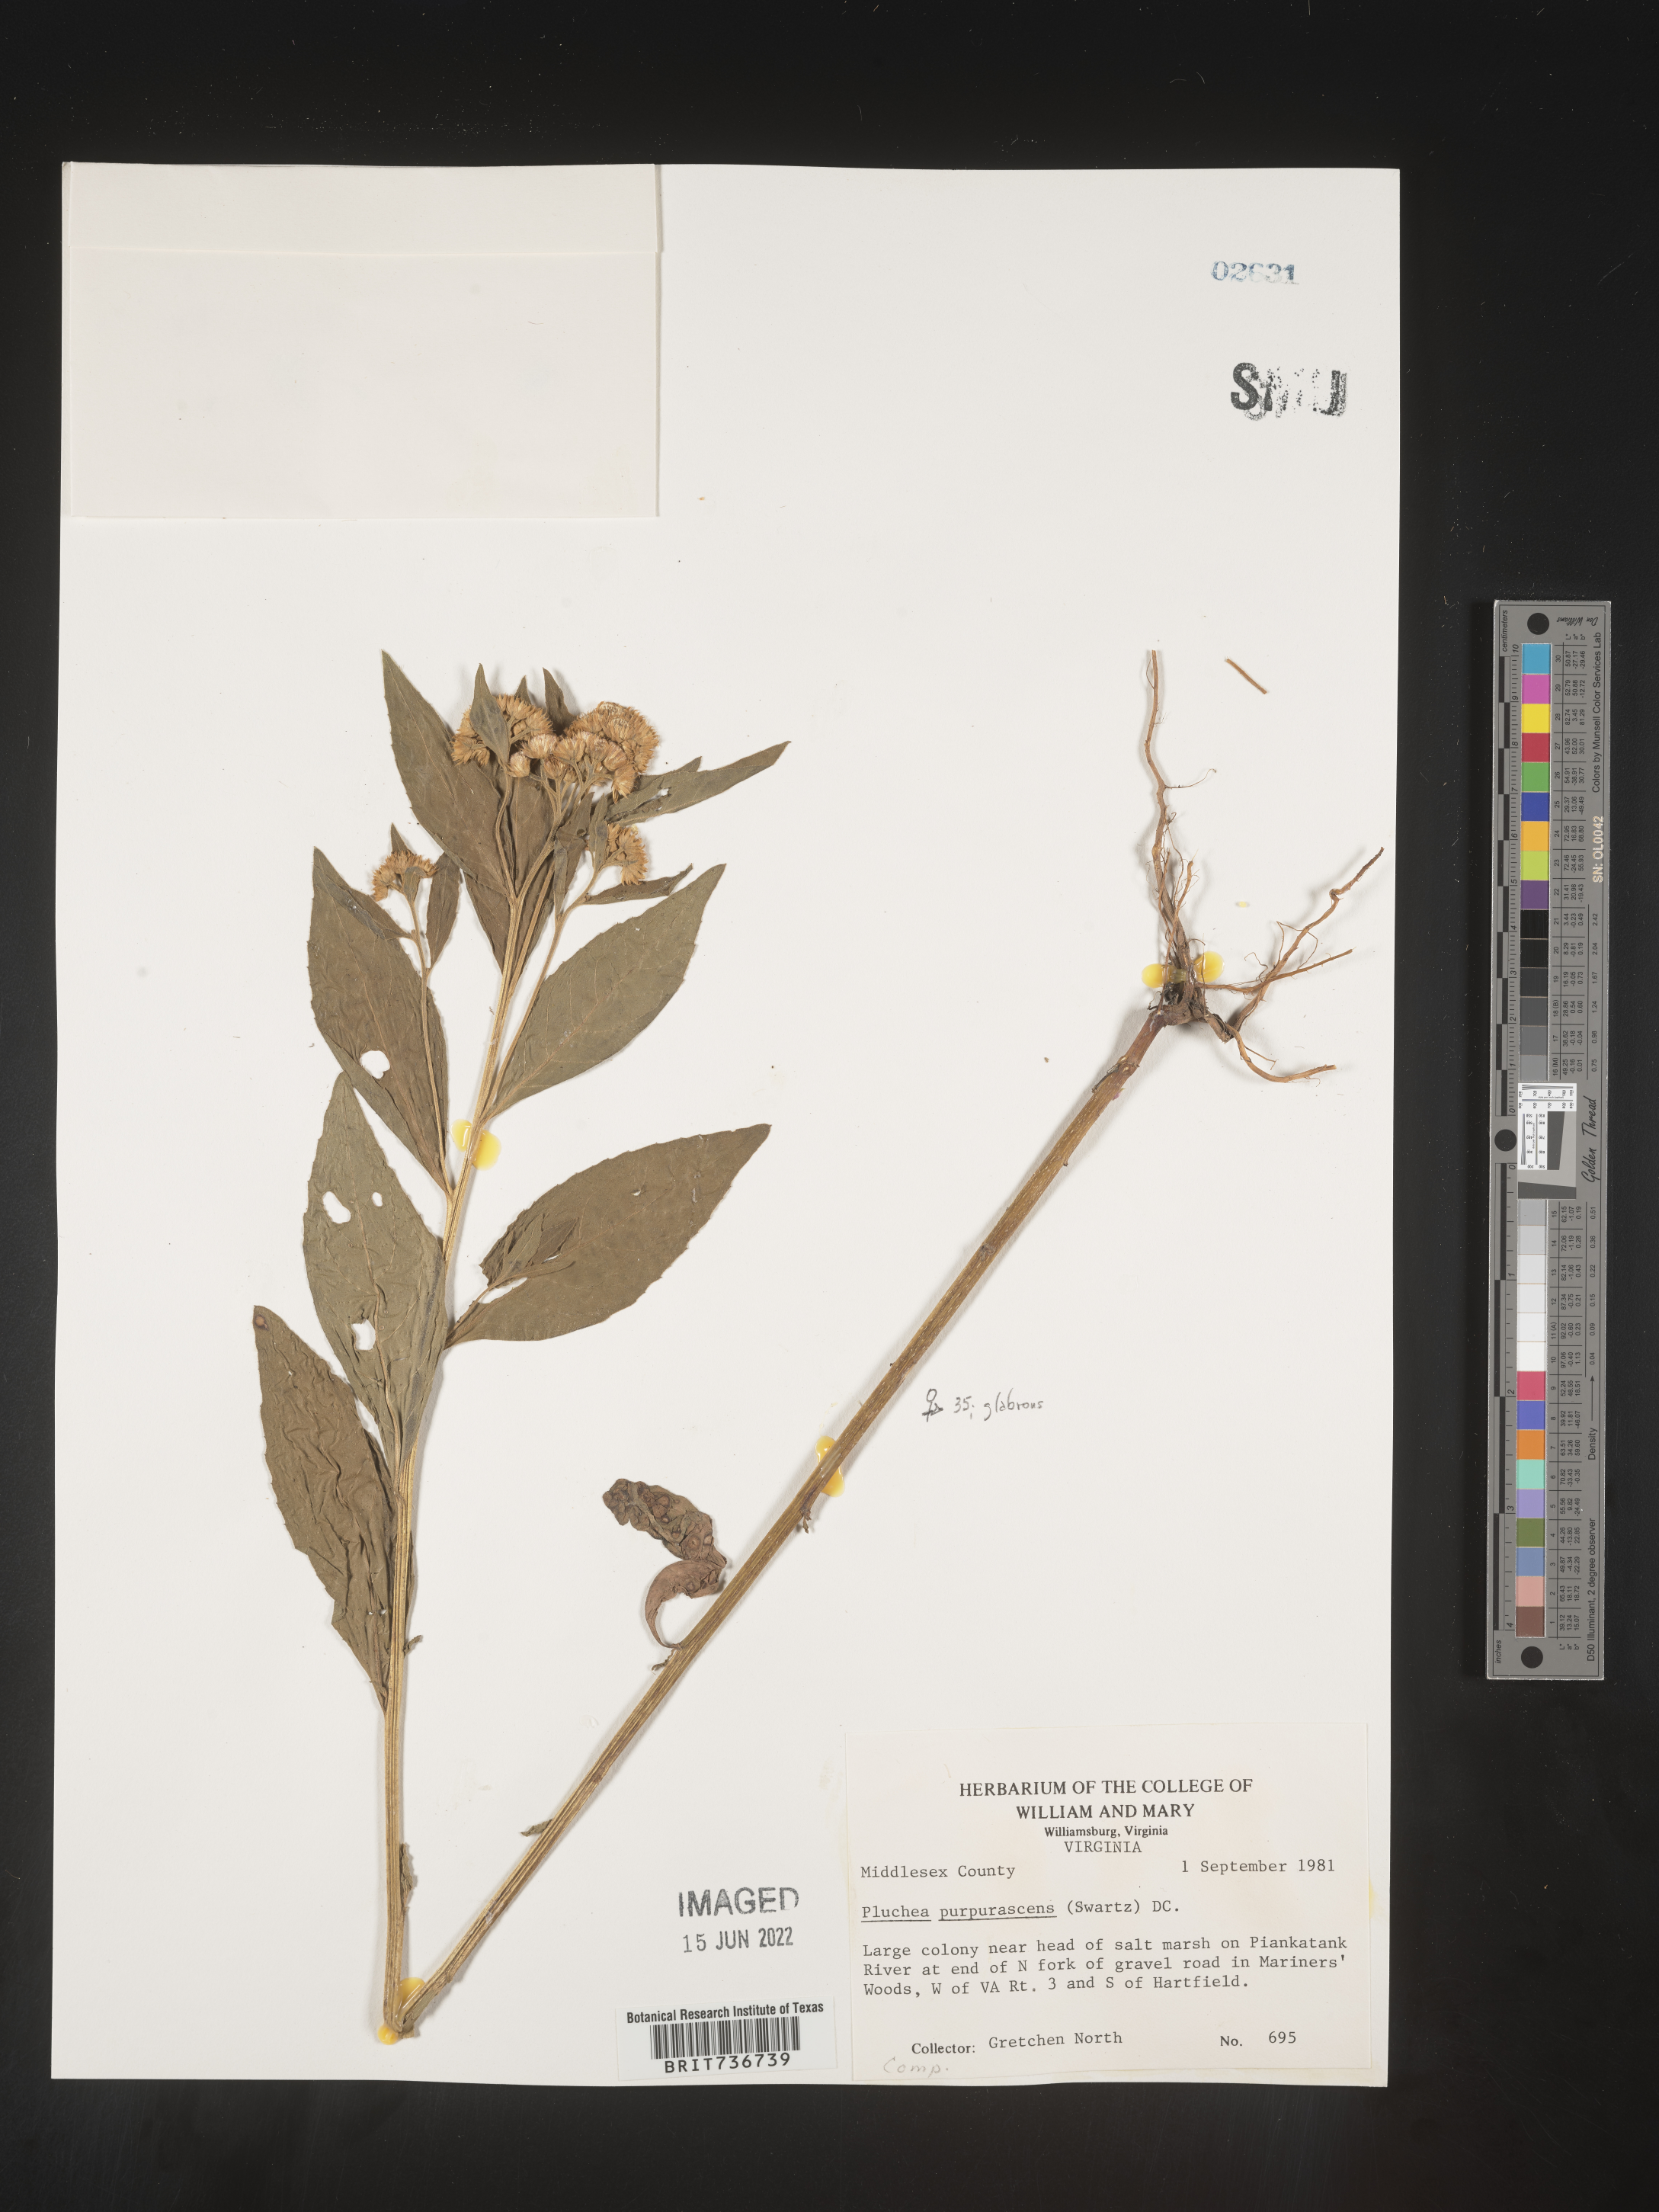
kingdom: Plantae
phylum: Tracheophyta
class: Magnoliopsida
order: Asterales
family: Asteraceae
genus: Pluchea
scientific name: Pluchea odorata
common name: Saltmarsh fleabane
